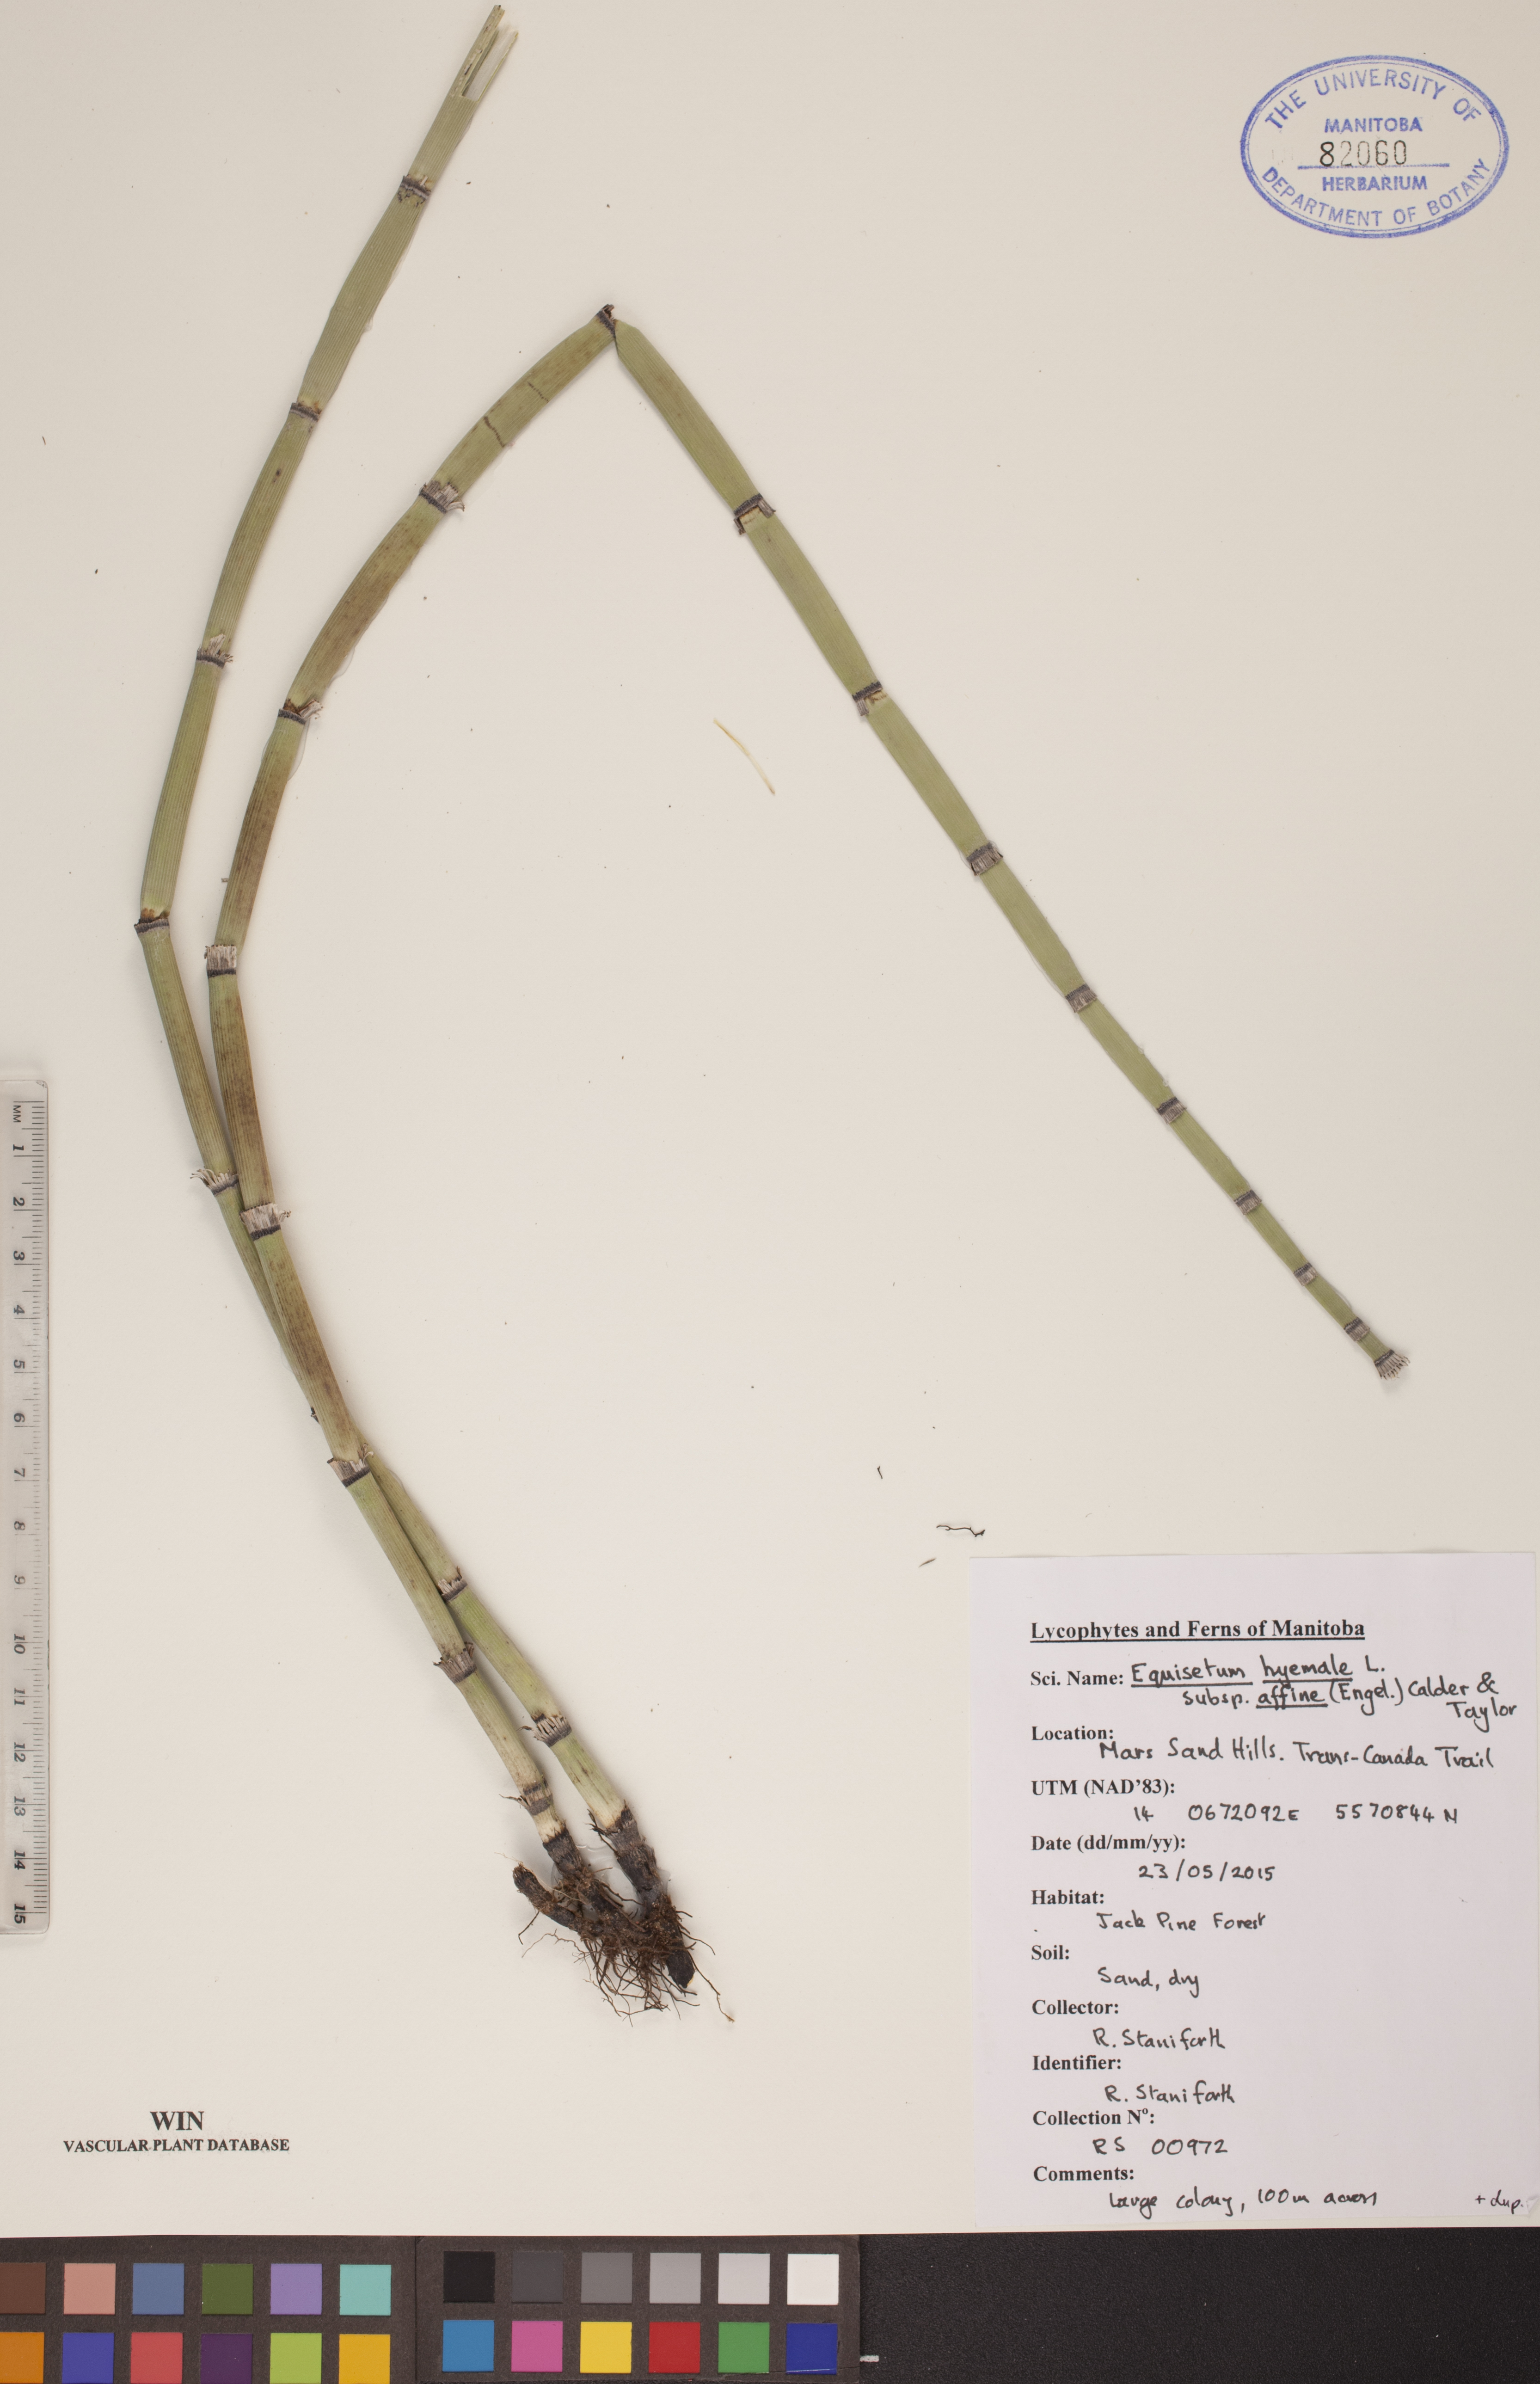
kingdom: Plantae
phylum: Tracheophyta
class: Polypodiopsida
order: Equisetales
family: Equisetaceae
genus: Equisetum
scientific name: Equisetum praealtum
